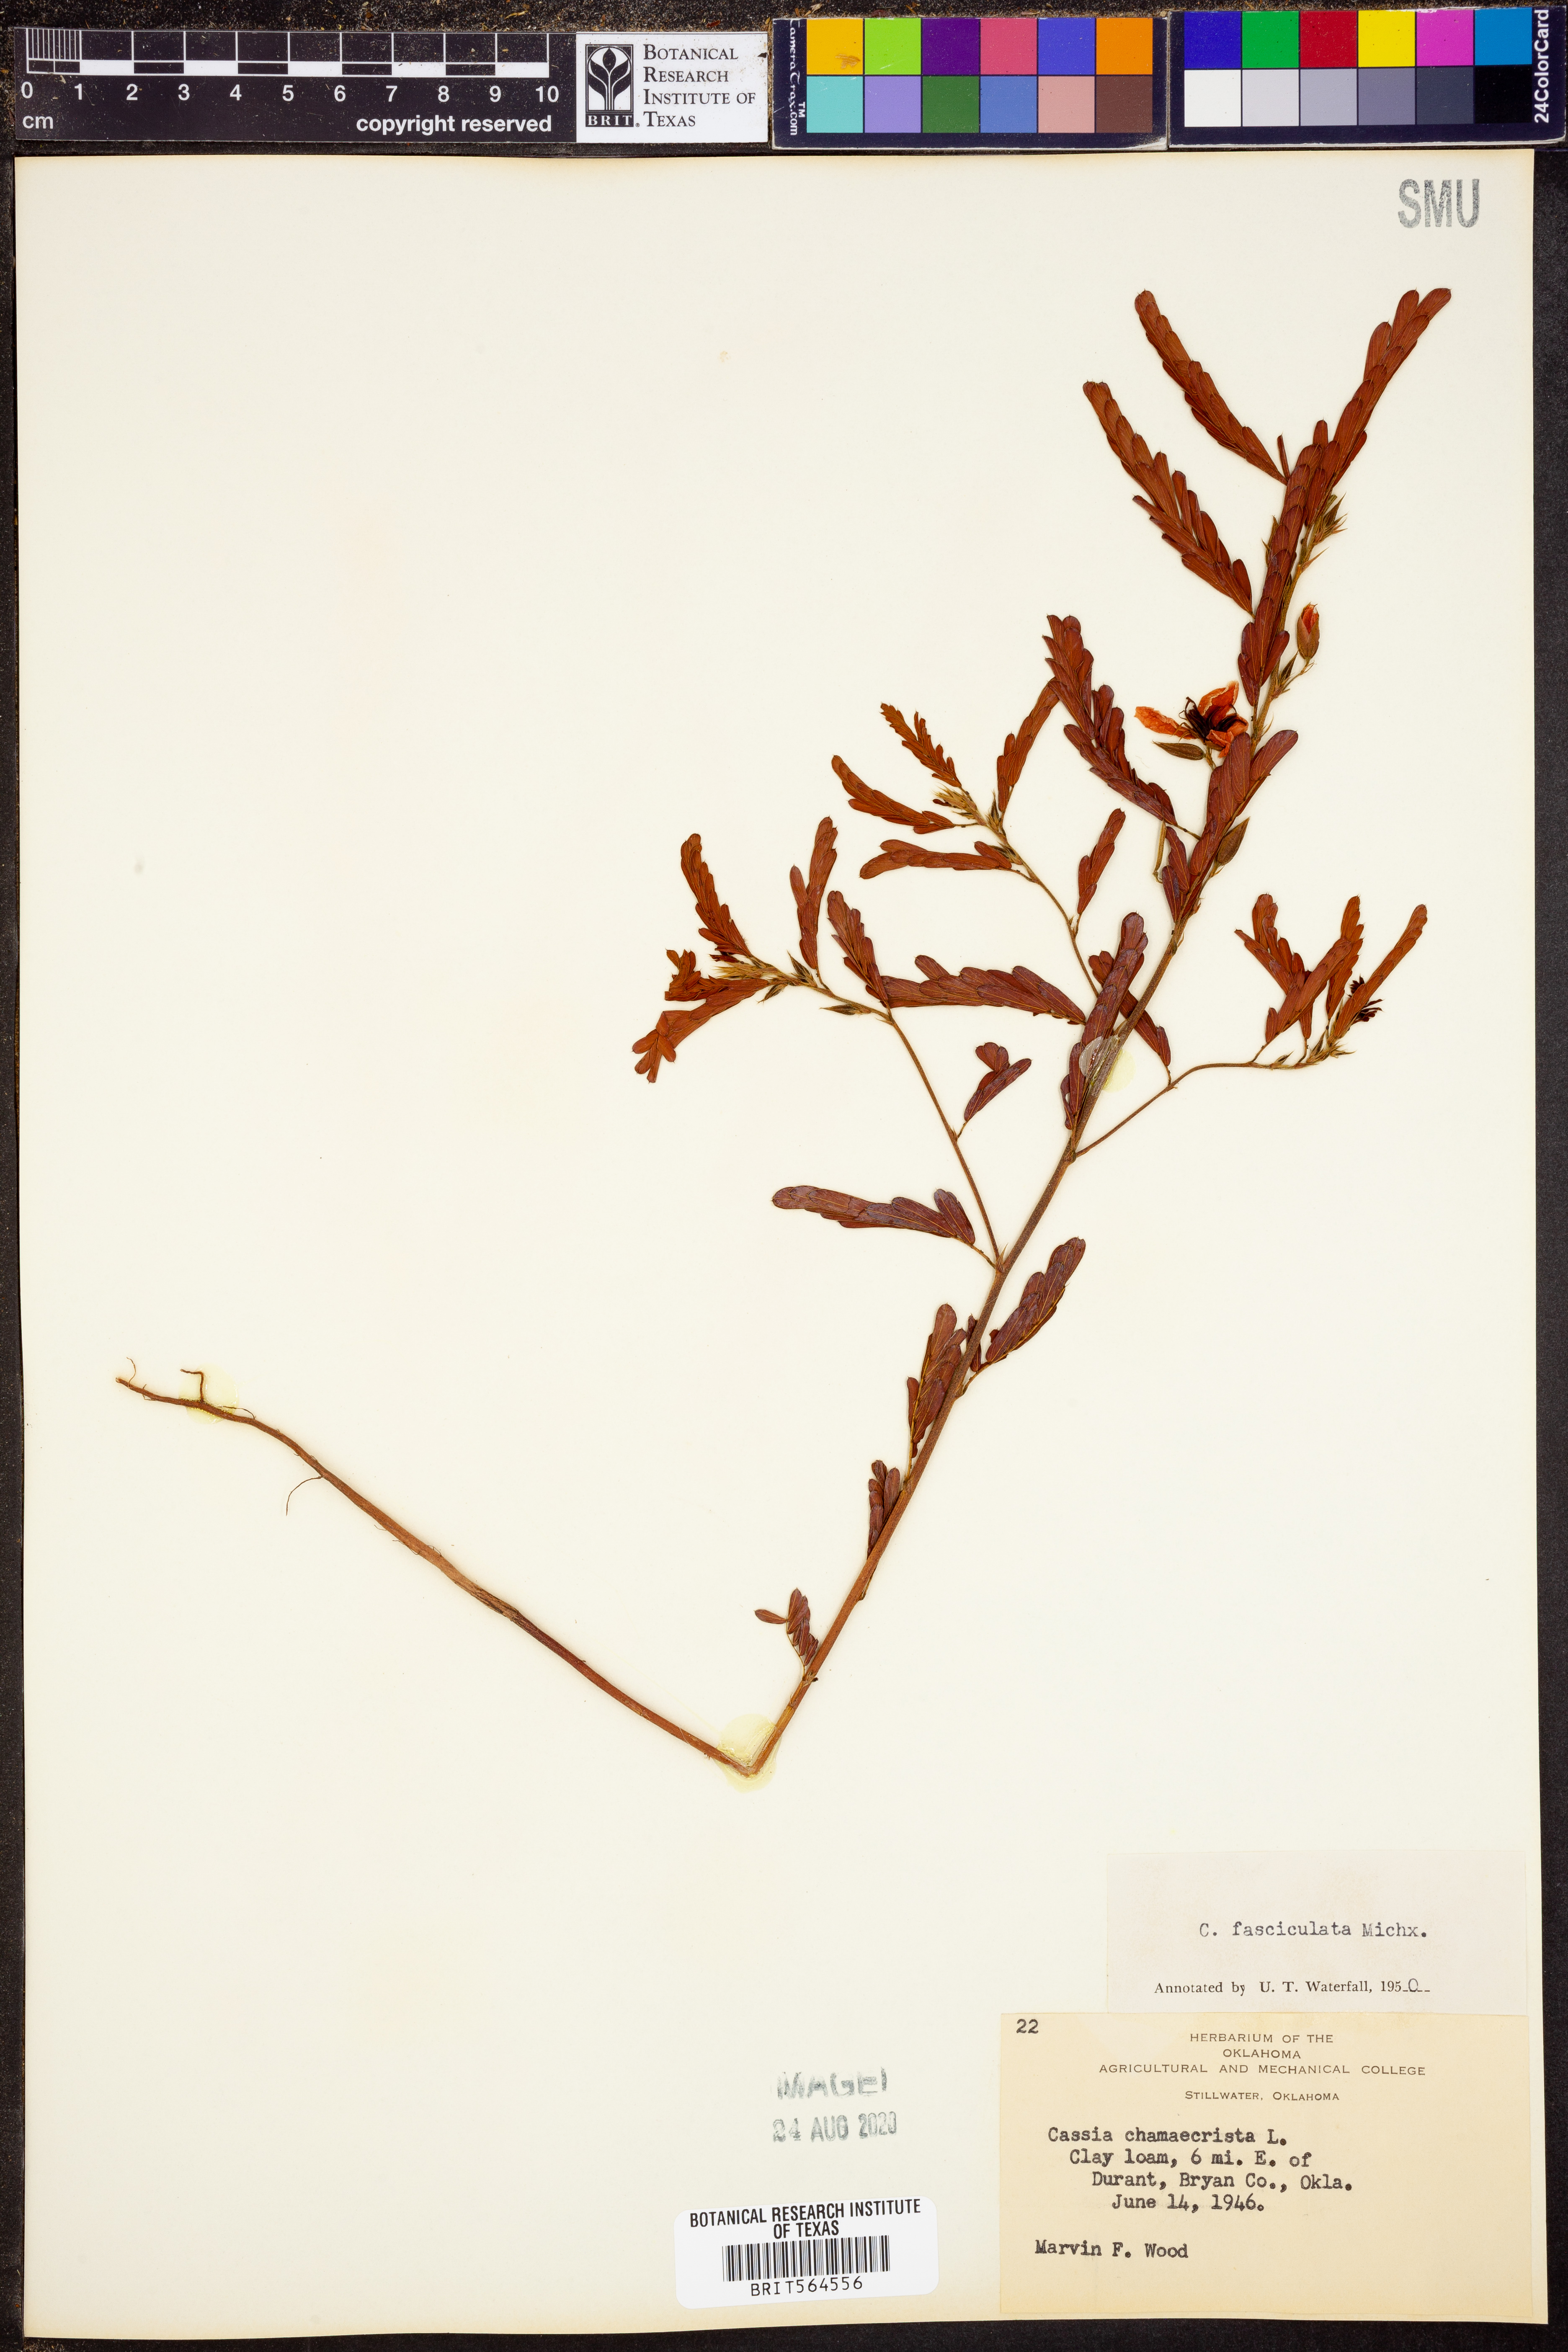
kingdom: Plantae
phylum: Tracheophyta
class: Magnoliopsida
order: Fabales
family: Fabaceae
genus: Chamaecrista
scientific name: Chamaecrista fasciculata
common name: Golden cassia
